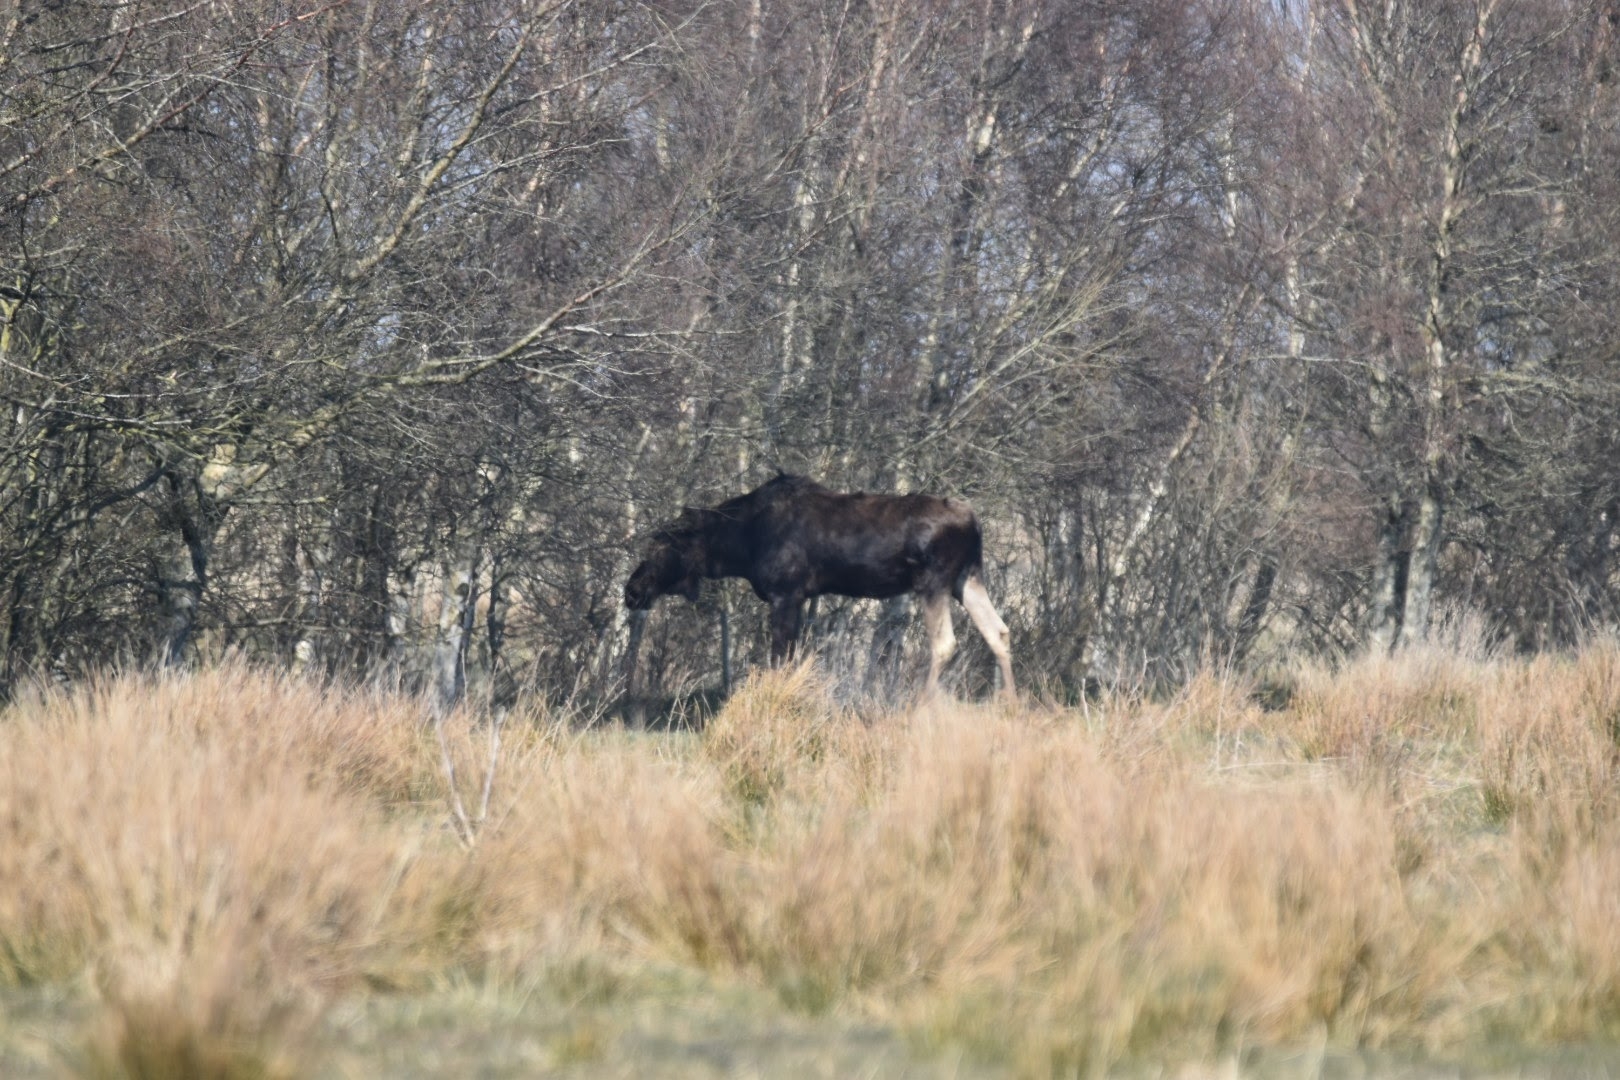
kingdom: Animalia
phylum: Chordata
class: Mammalia
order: Artiodactyla
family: Cervidae
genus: Alces
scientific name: Alces alces
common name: Elg
